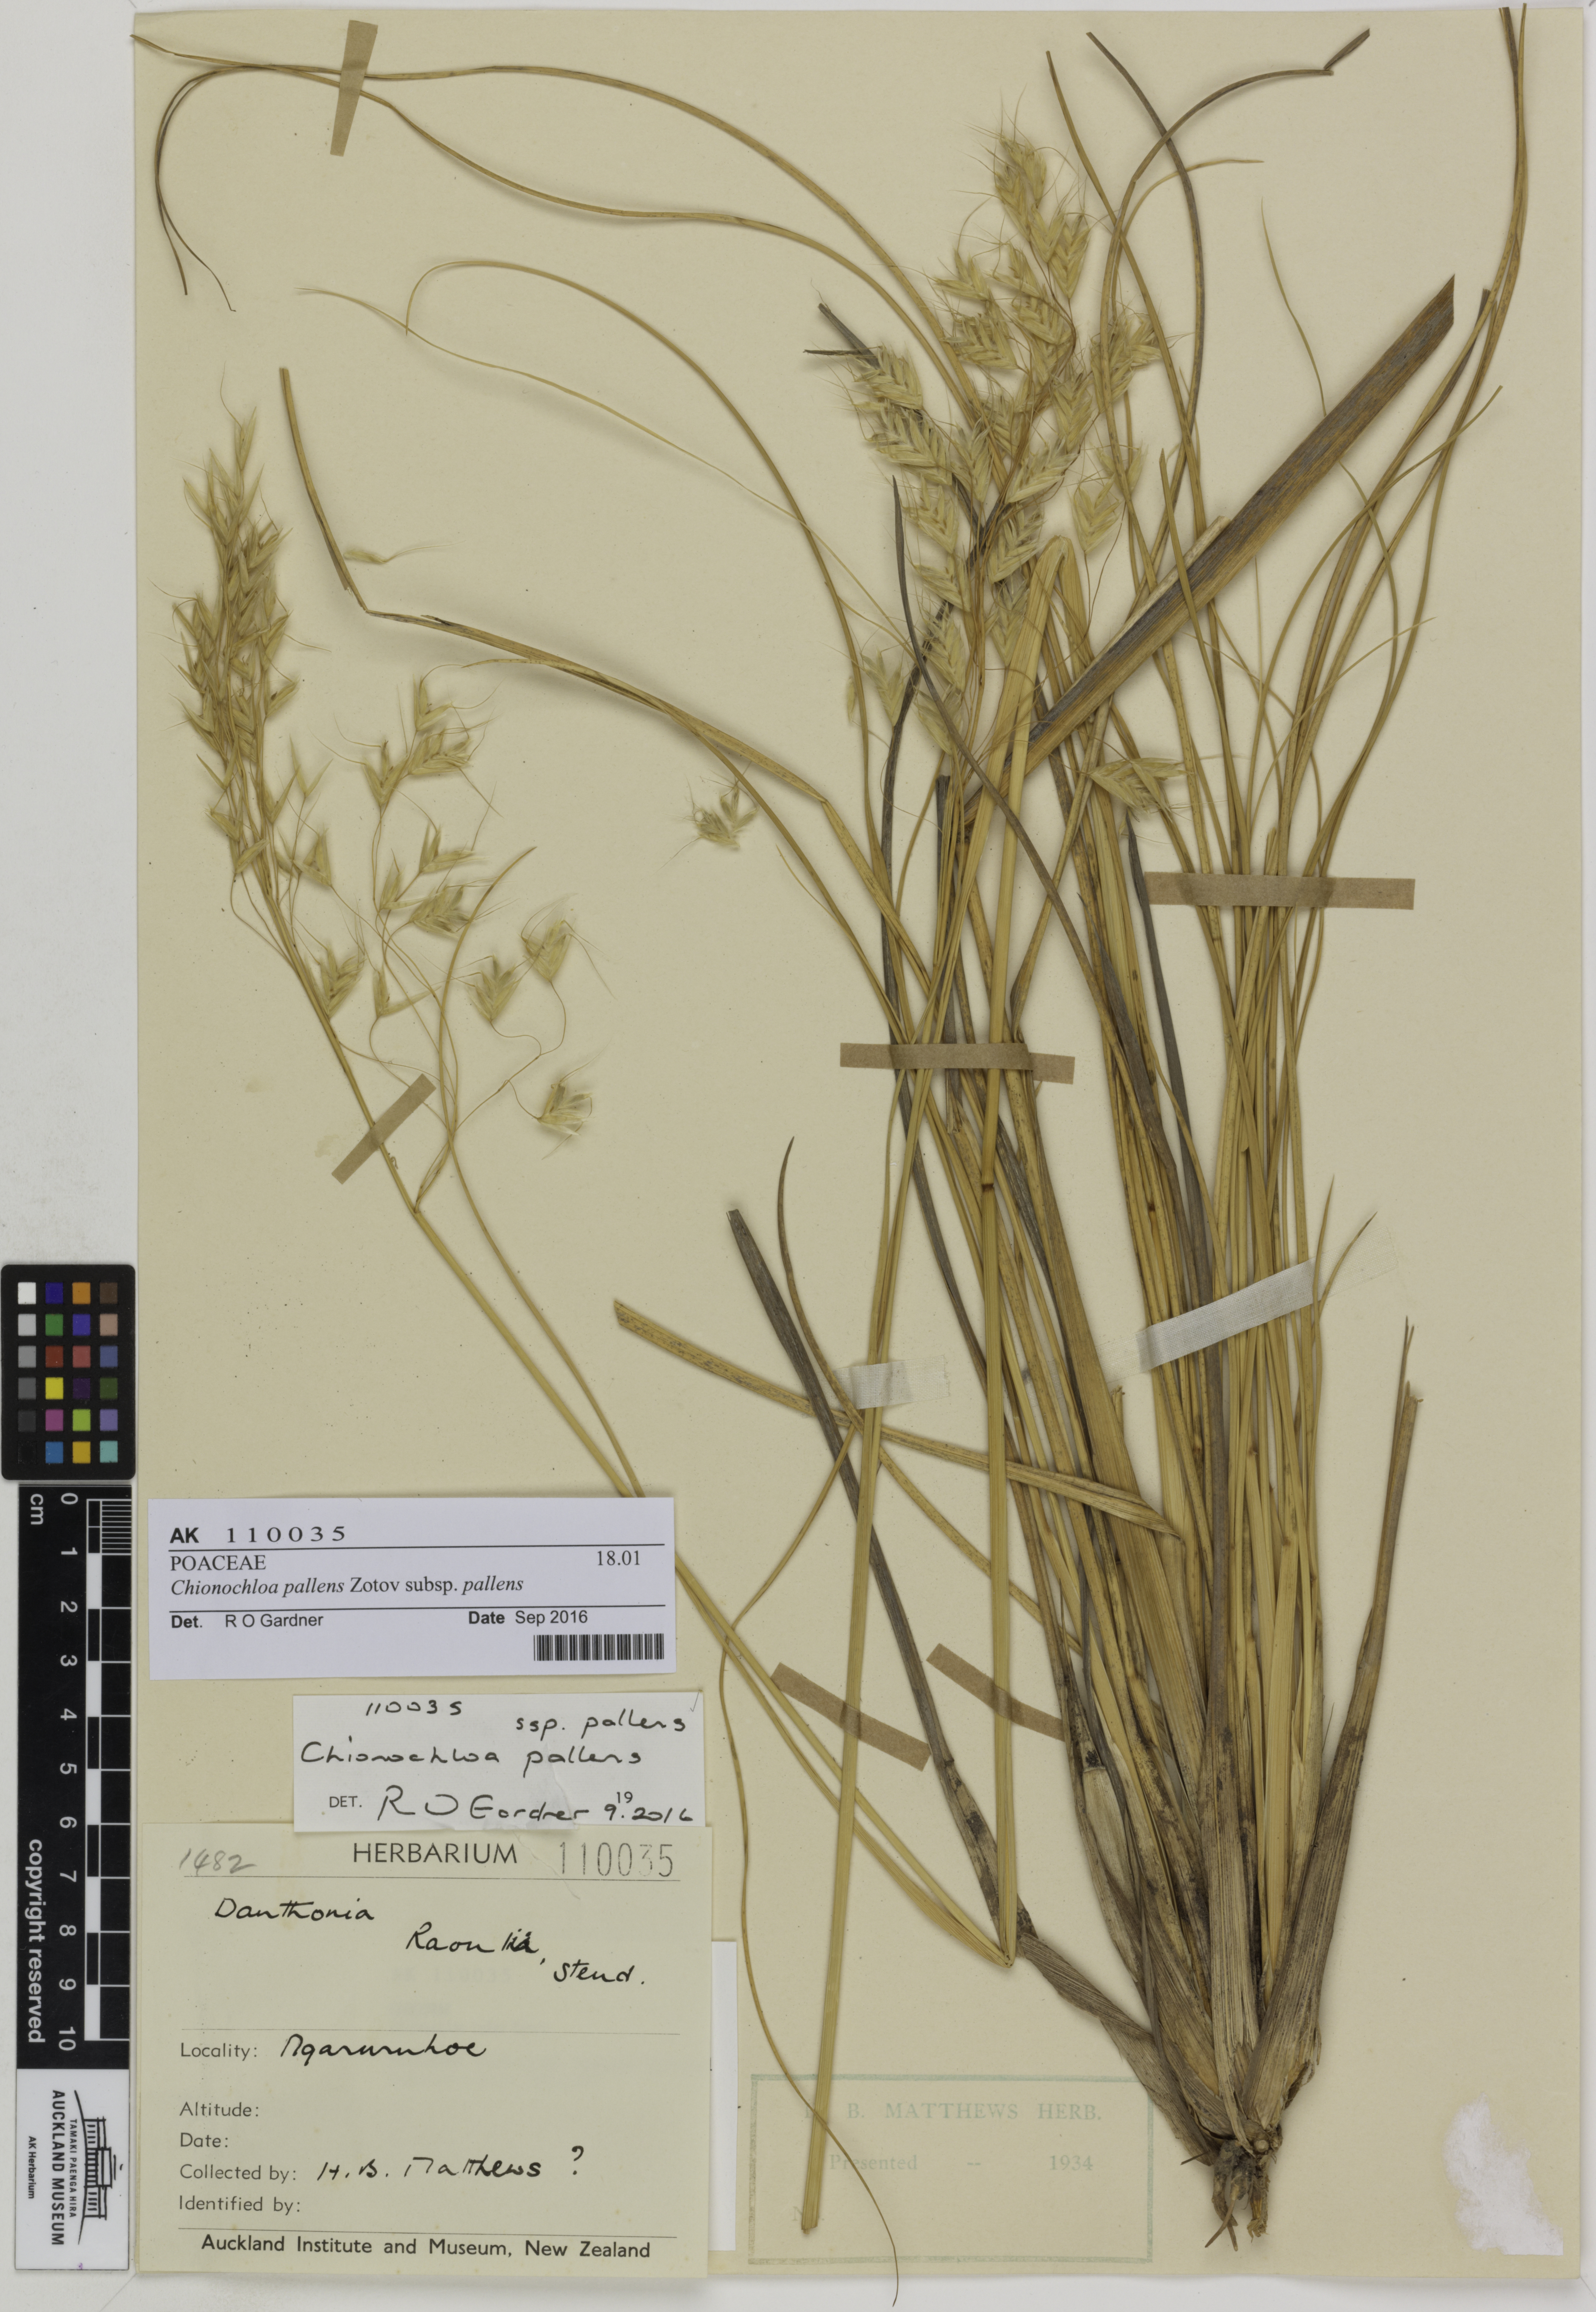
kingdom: Plantae
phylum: Tracheophyta
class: Liliopsida
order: Poales
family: Poaceae
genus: Chionochloa
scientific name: Chionochloa pallens
